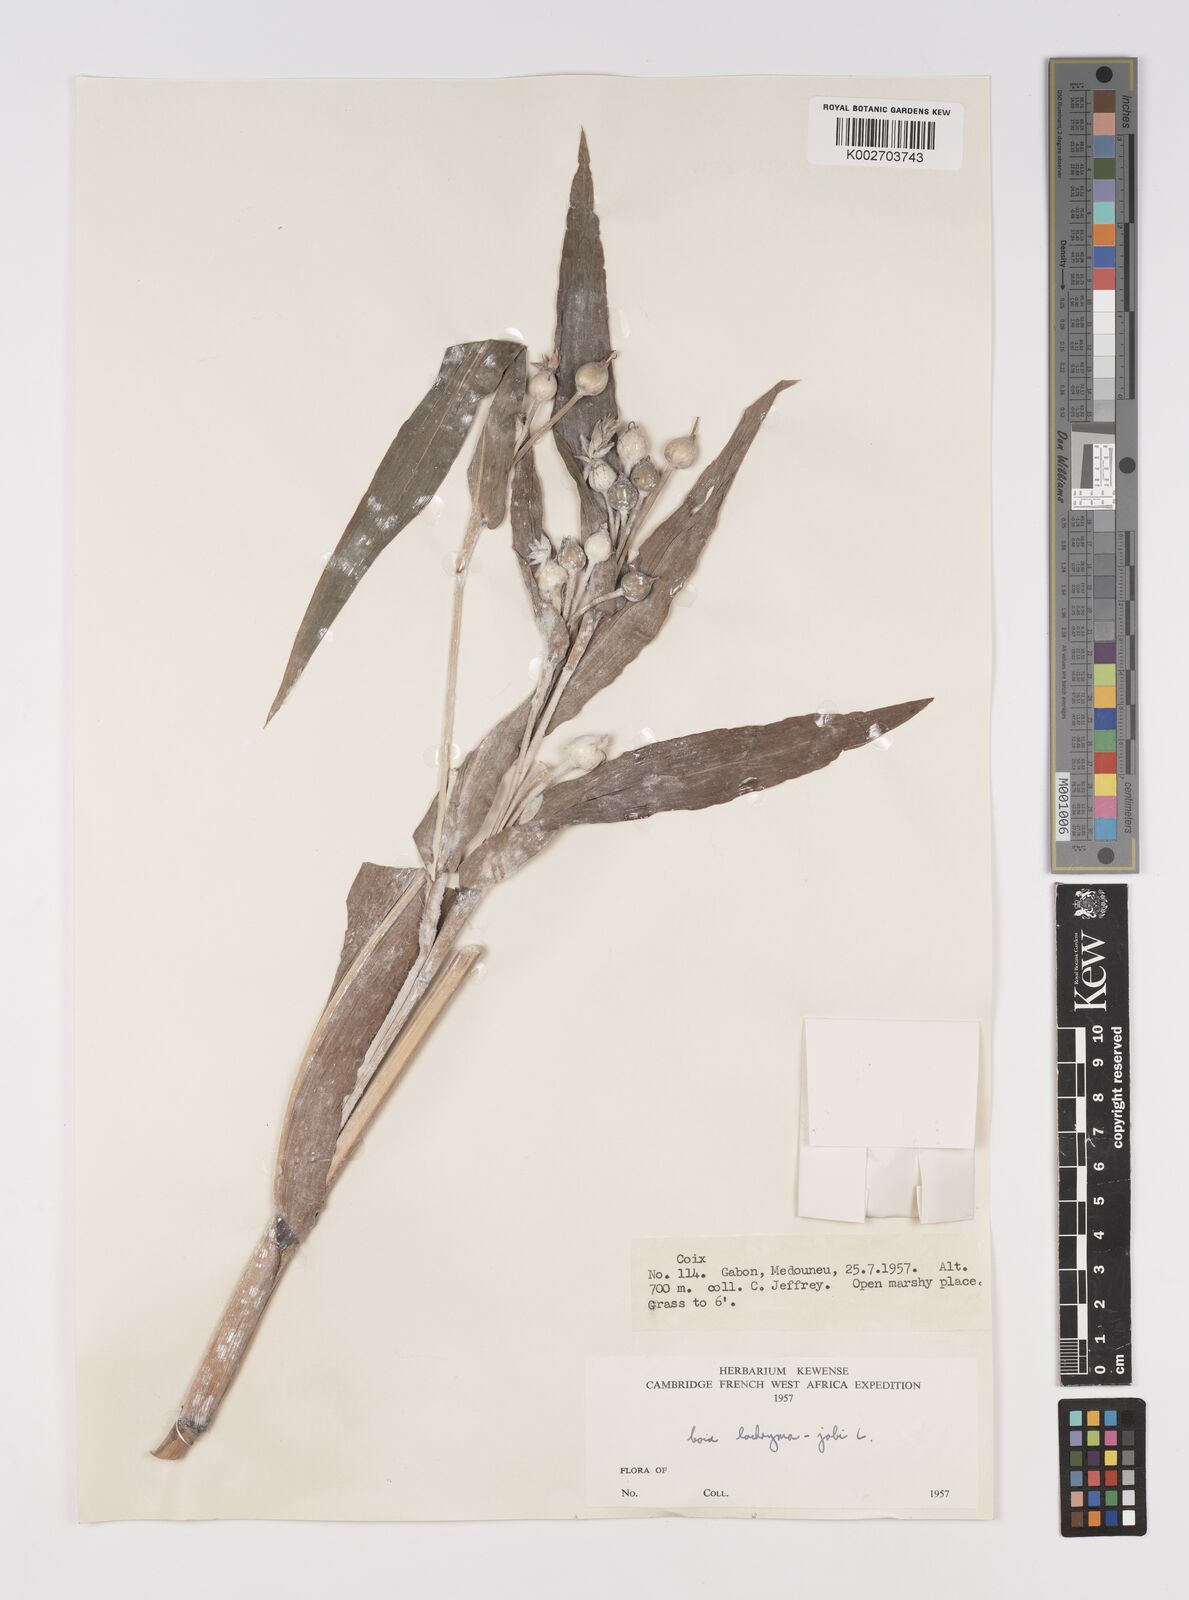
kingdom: Plantae
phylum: Tracheophyta
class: Liliopsida
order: Poales
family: Poaceae
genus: Coix
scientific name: Coix lacryma-jobi
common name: Job's tears
